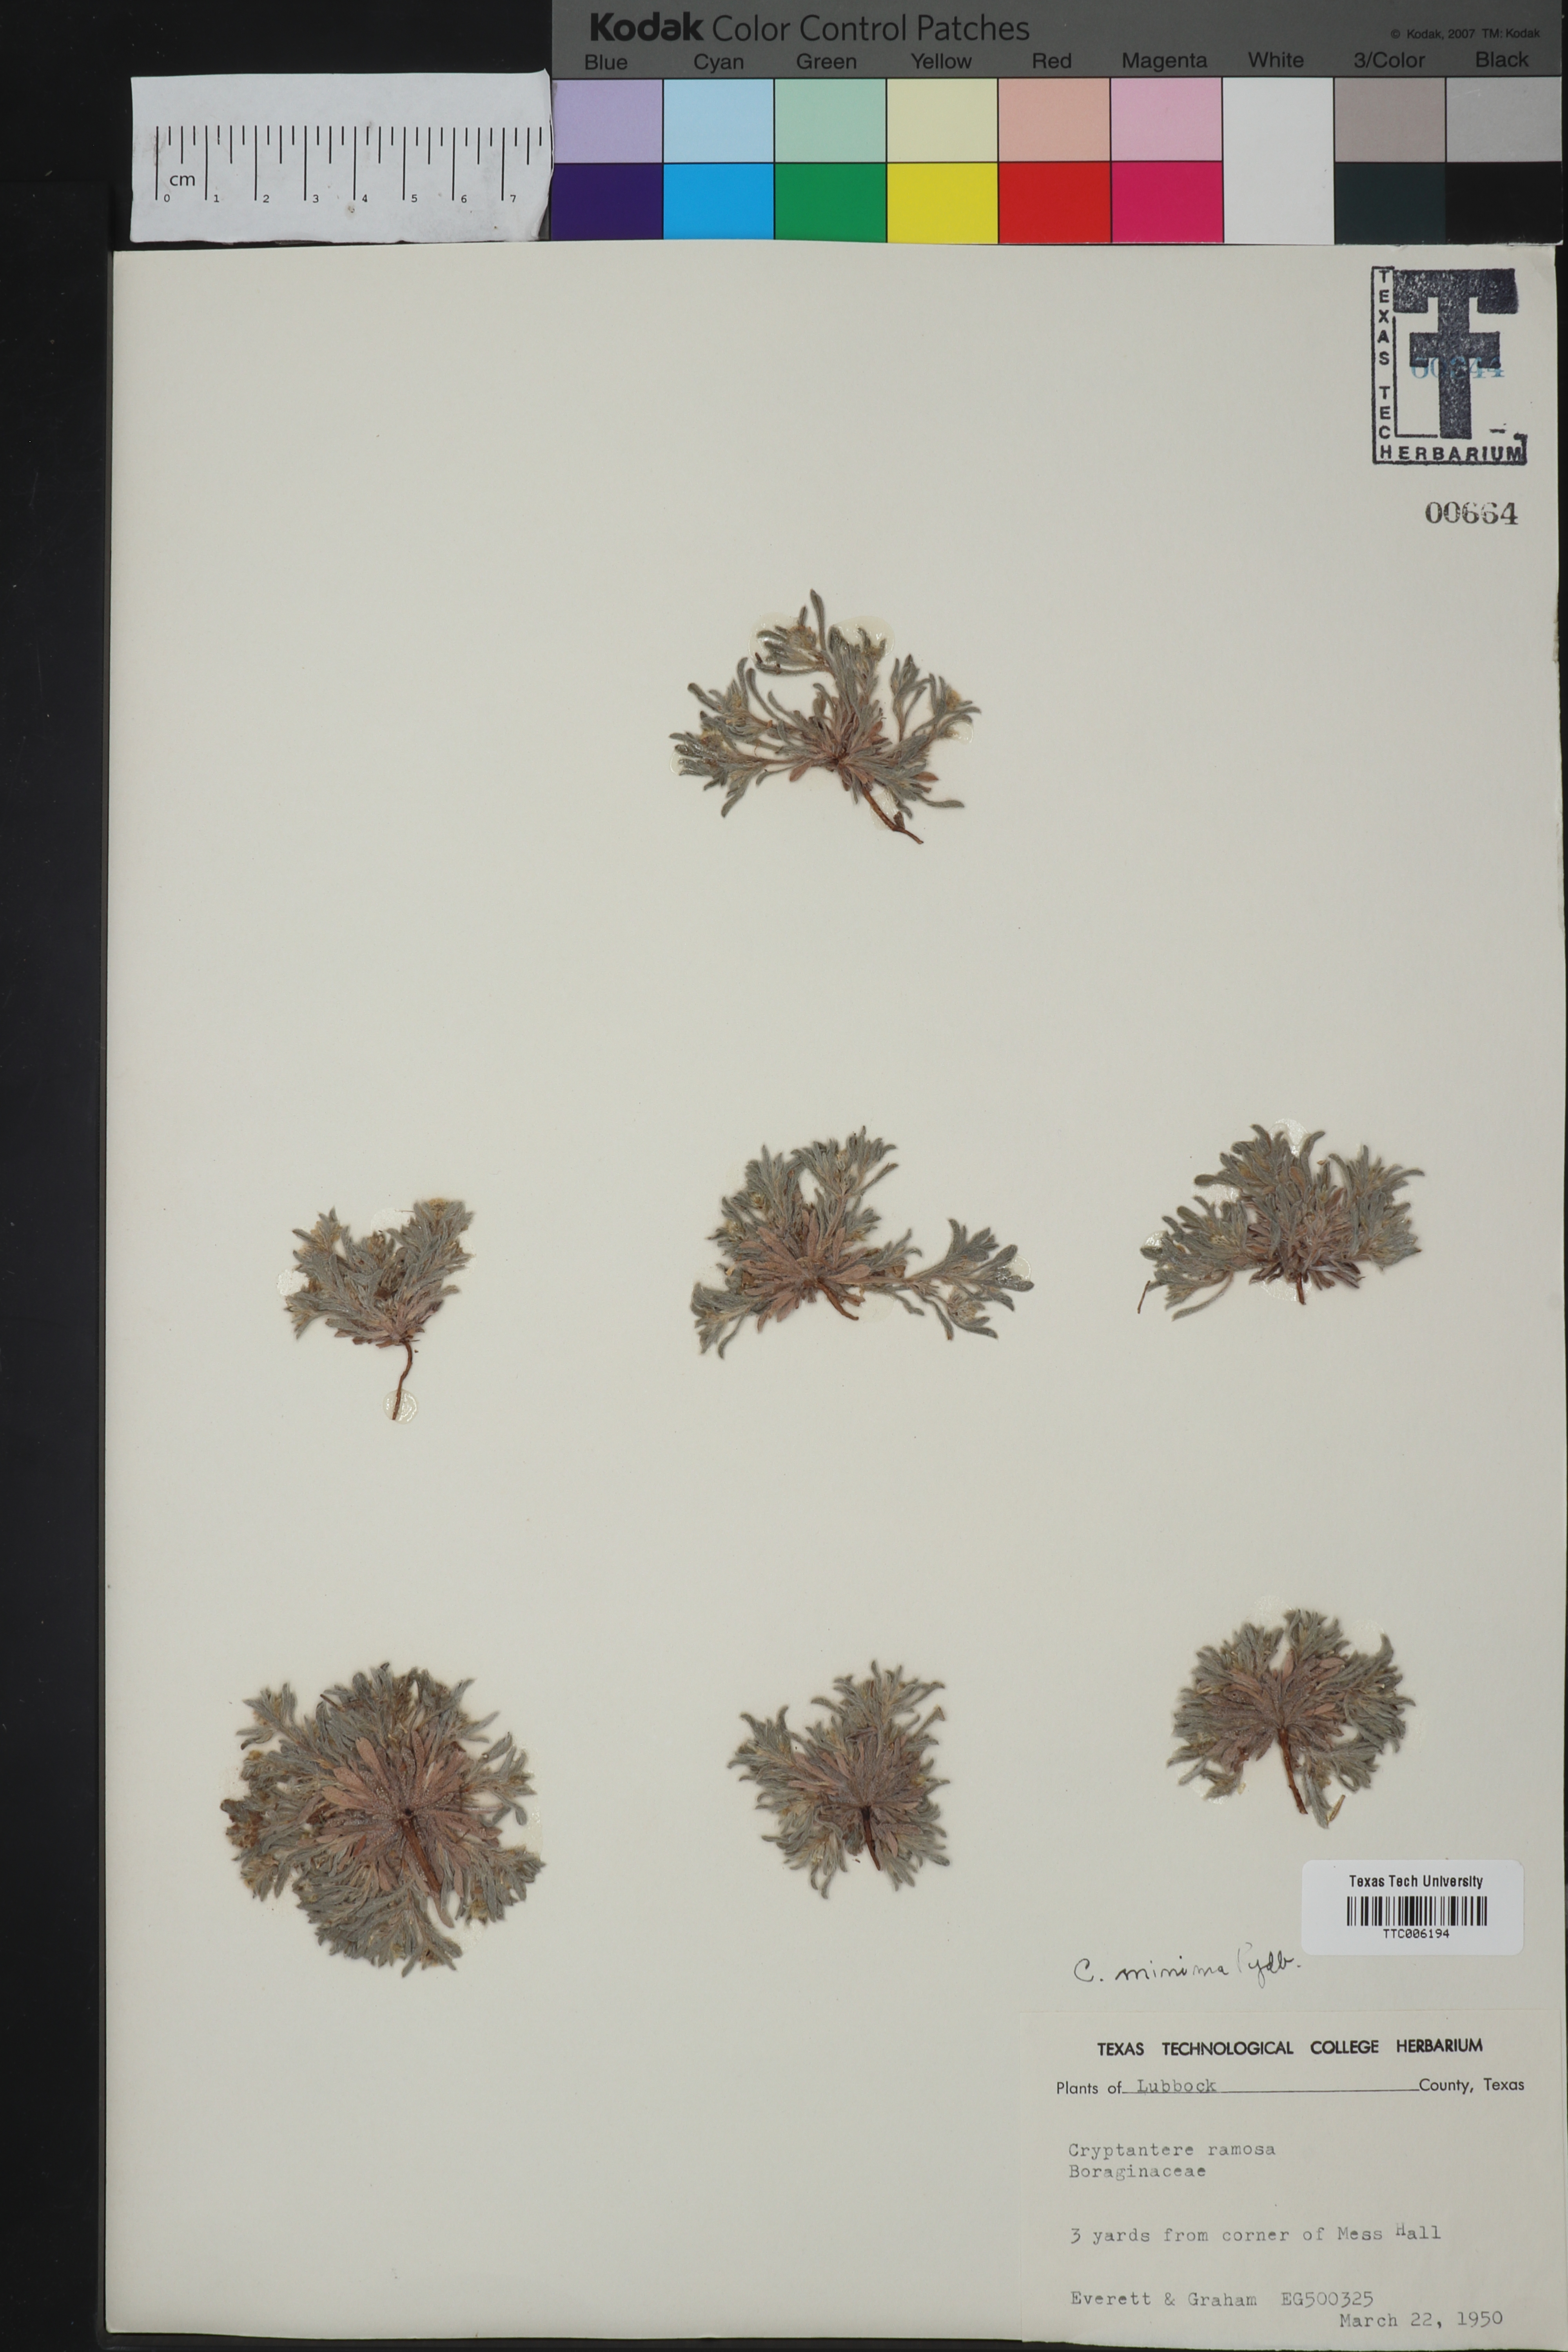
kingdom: Plantae
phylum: Tracheophyta
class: Magnoliopsida
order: Boraginales
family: Boraginaceae
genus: Cryptantha
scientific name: Cryptantha minima
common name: Little cat's-eye
